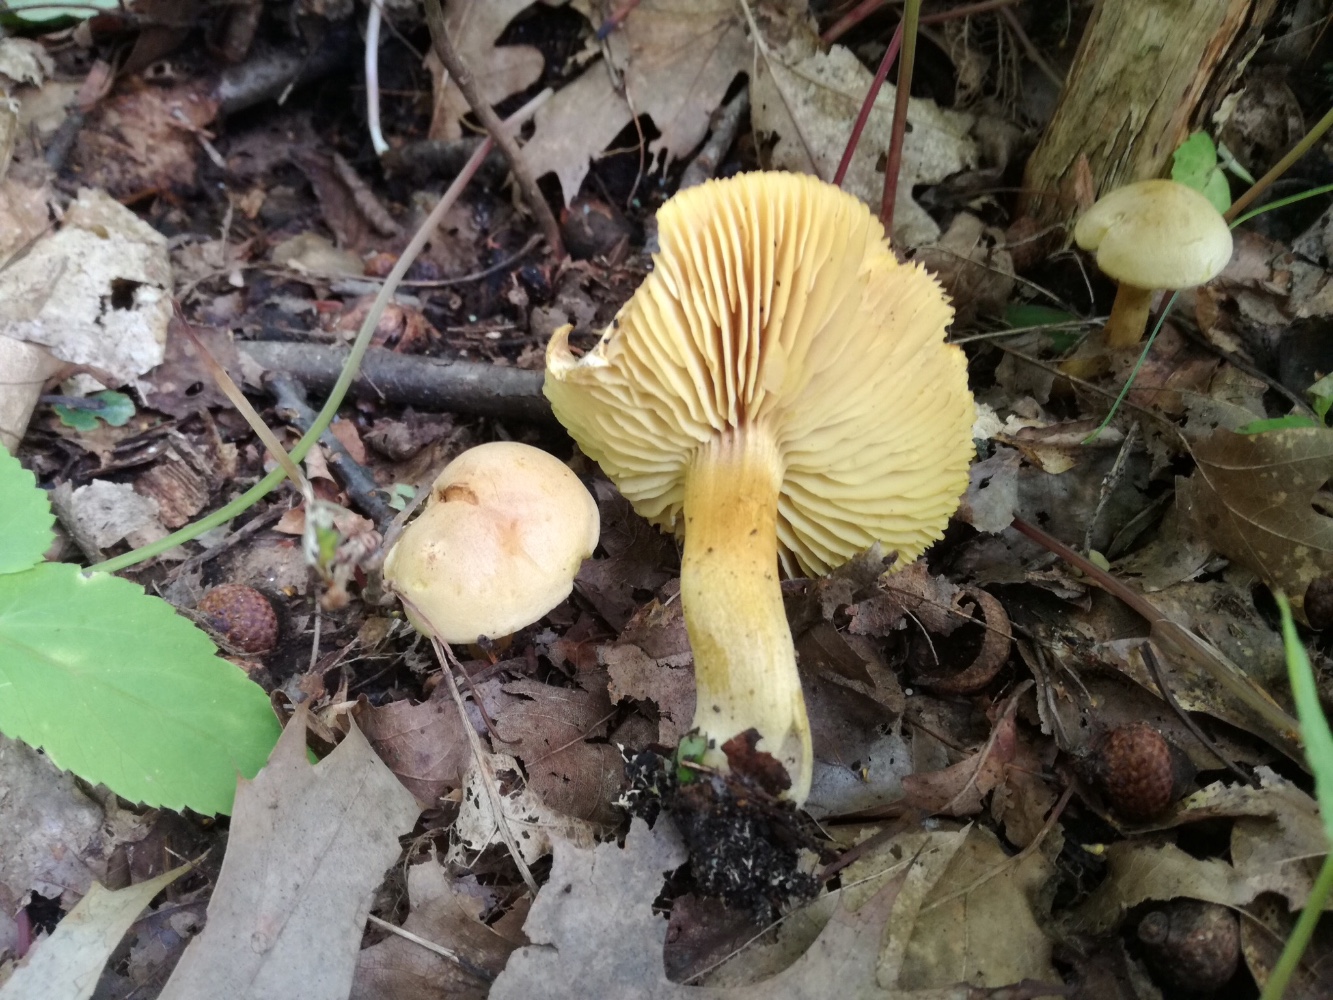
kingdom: Fungi
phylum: Basidiomycota
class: Agaricomycetes
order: Agaricales
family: Tricholomataceae
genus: Tricholoma
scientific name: Tricholoma sulphureum
